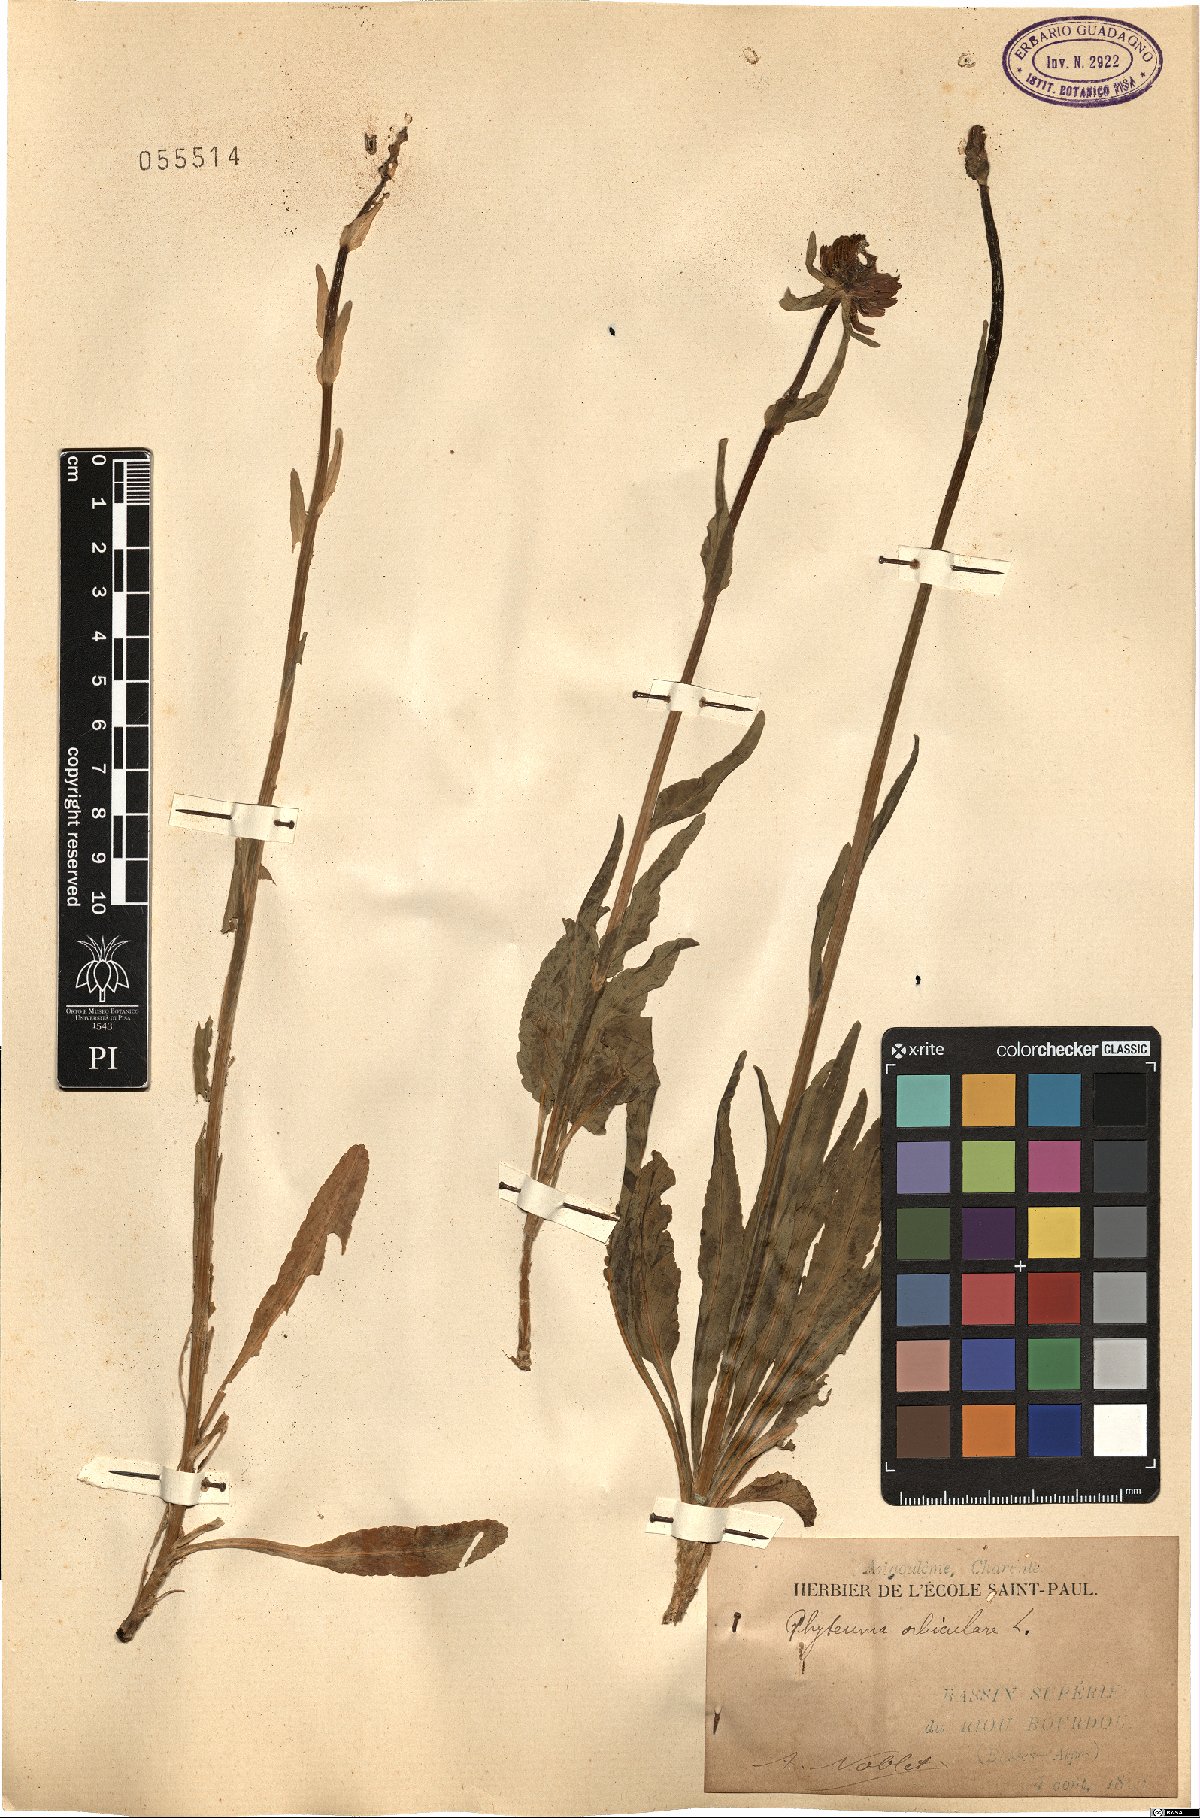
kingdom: Plantae
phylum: Tracheophyta
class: Magnoliopsida
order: Asterales
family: Campanulaceae
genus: Phyteuma
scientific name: Phyteuma orbiculare
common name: Round-headed rampion
